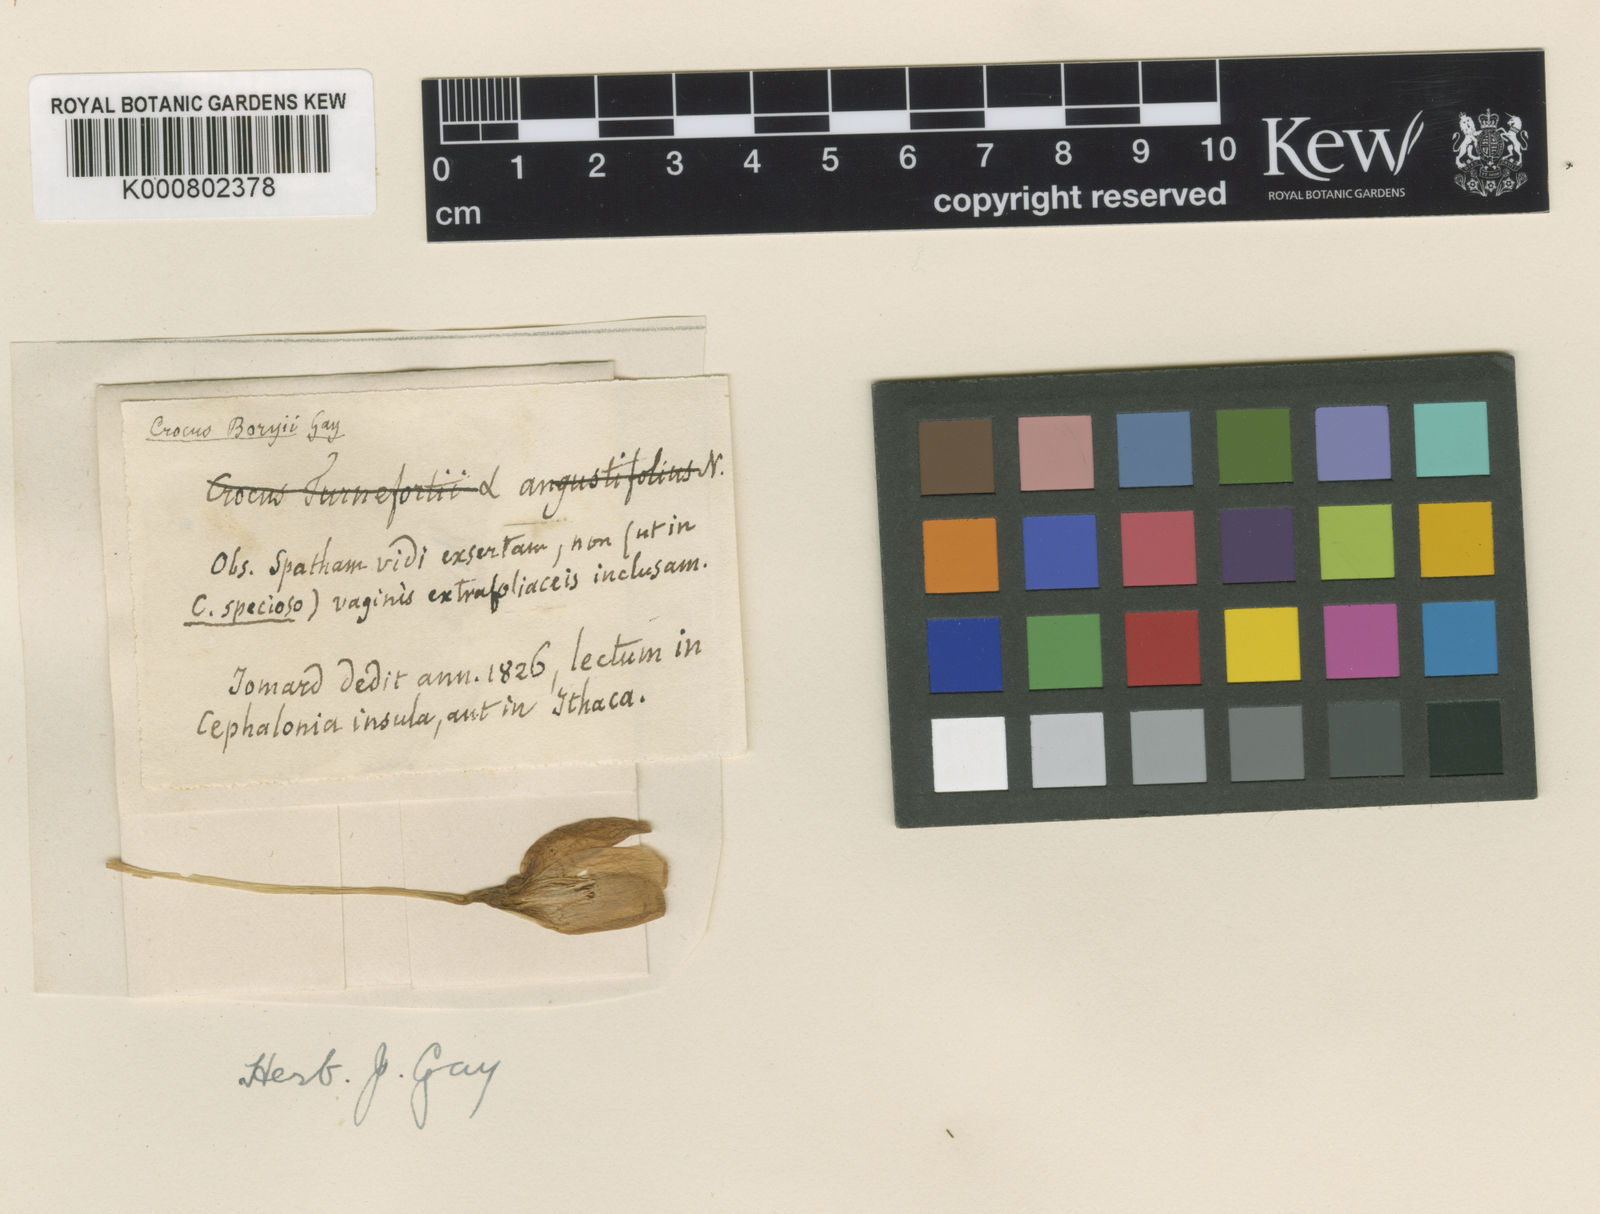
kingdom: Plantae
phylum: Tracheophyta
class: Liliopsida
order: Asparagales
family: Iridaceae
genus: Crocus
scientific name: Crocus boryi
